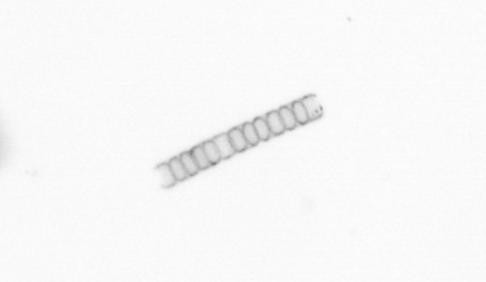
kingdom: Chromista
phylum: Ochrophyta
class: Bacillariophyceae
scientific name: Bacillariophyceae
